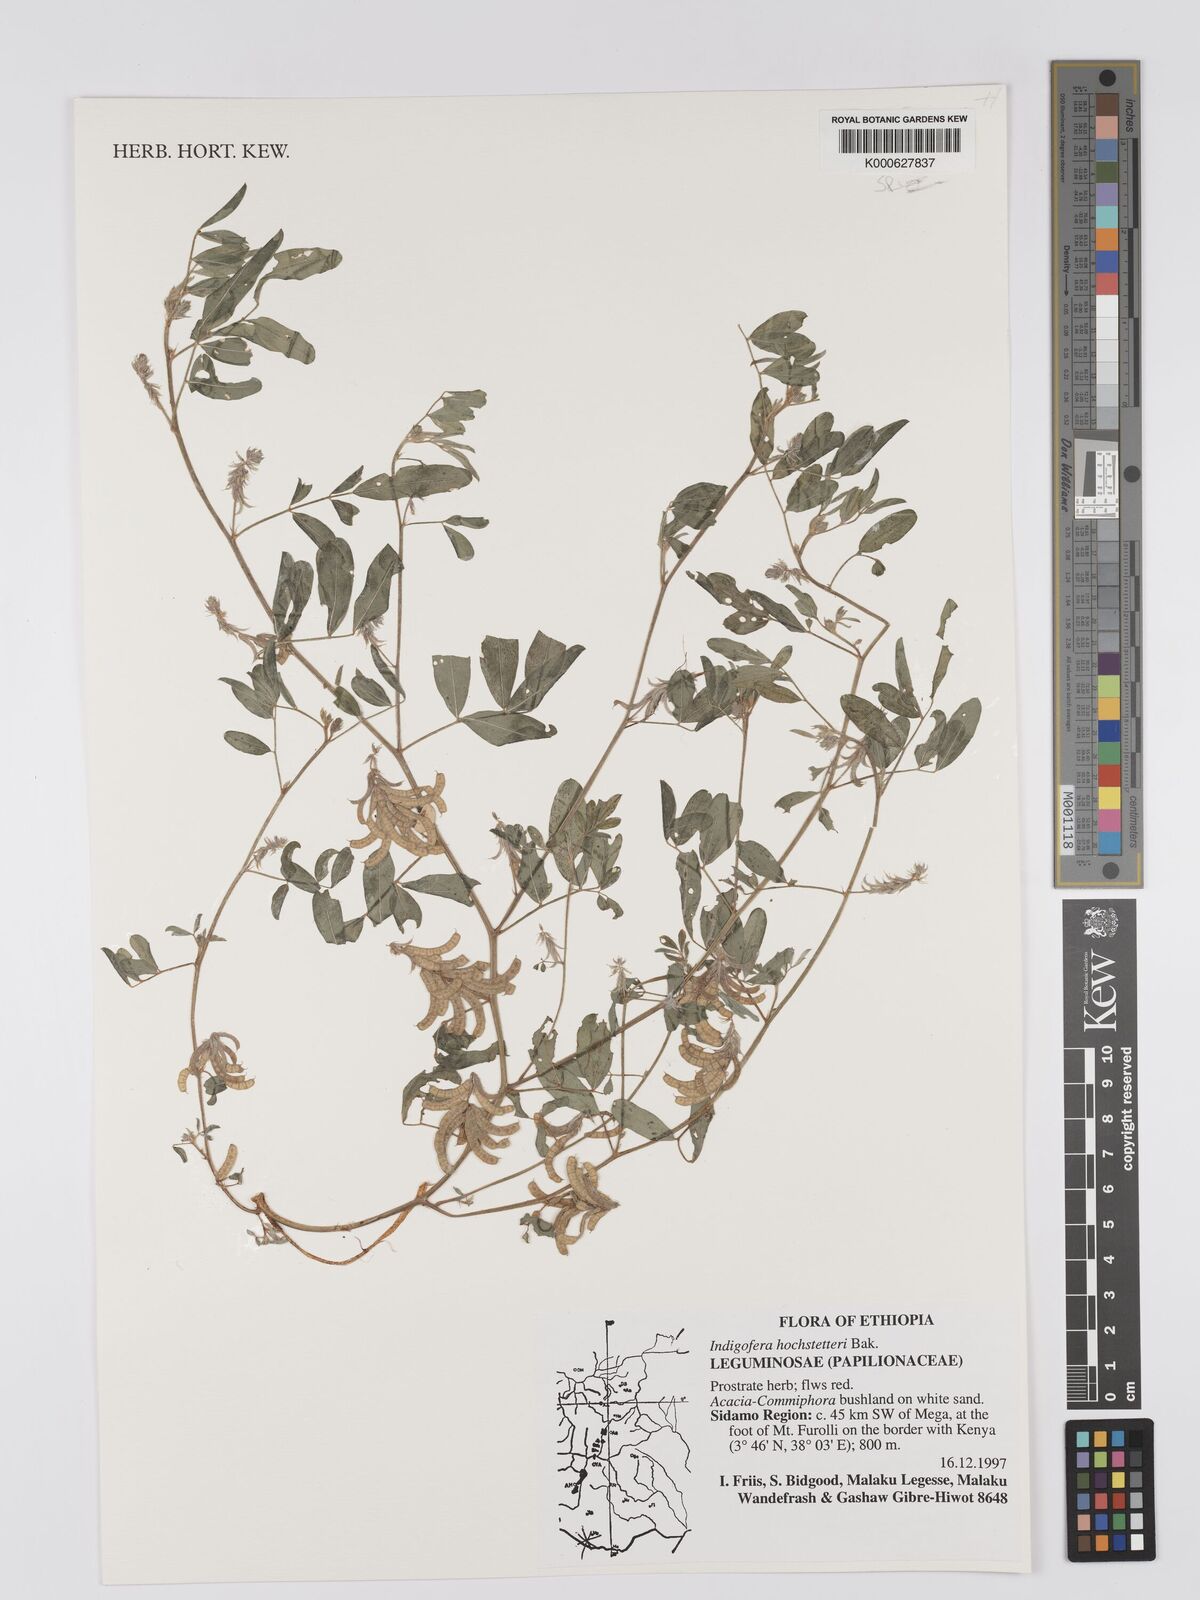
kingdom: Plantae
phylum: Tracheophyta
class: Magnoliopsida
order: Fabales
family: Fabaceae
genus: Indigofera
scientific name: Indigofera hochstetteri
